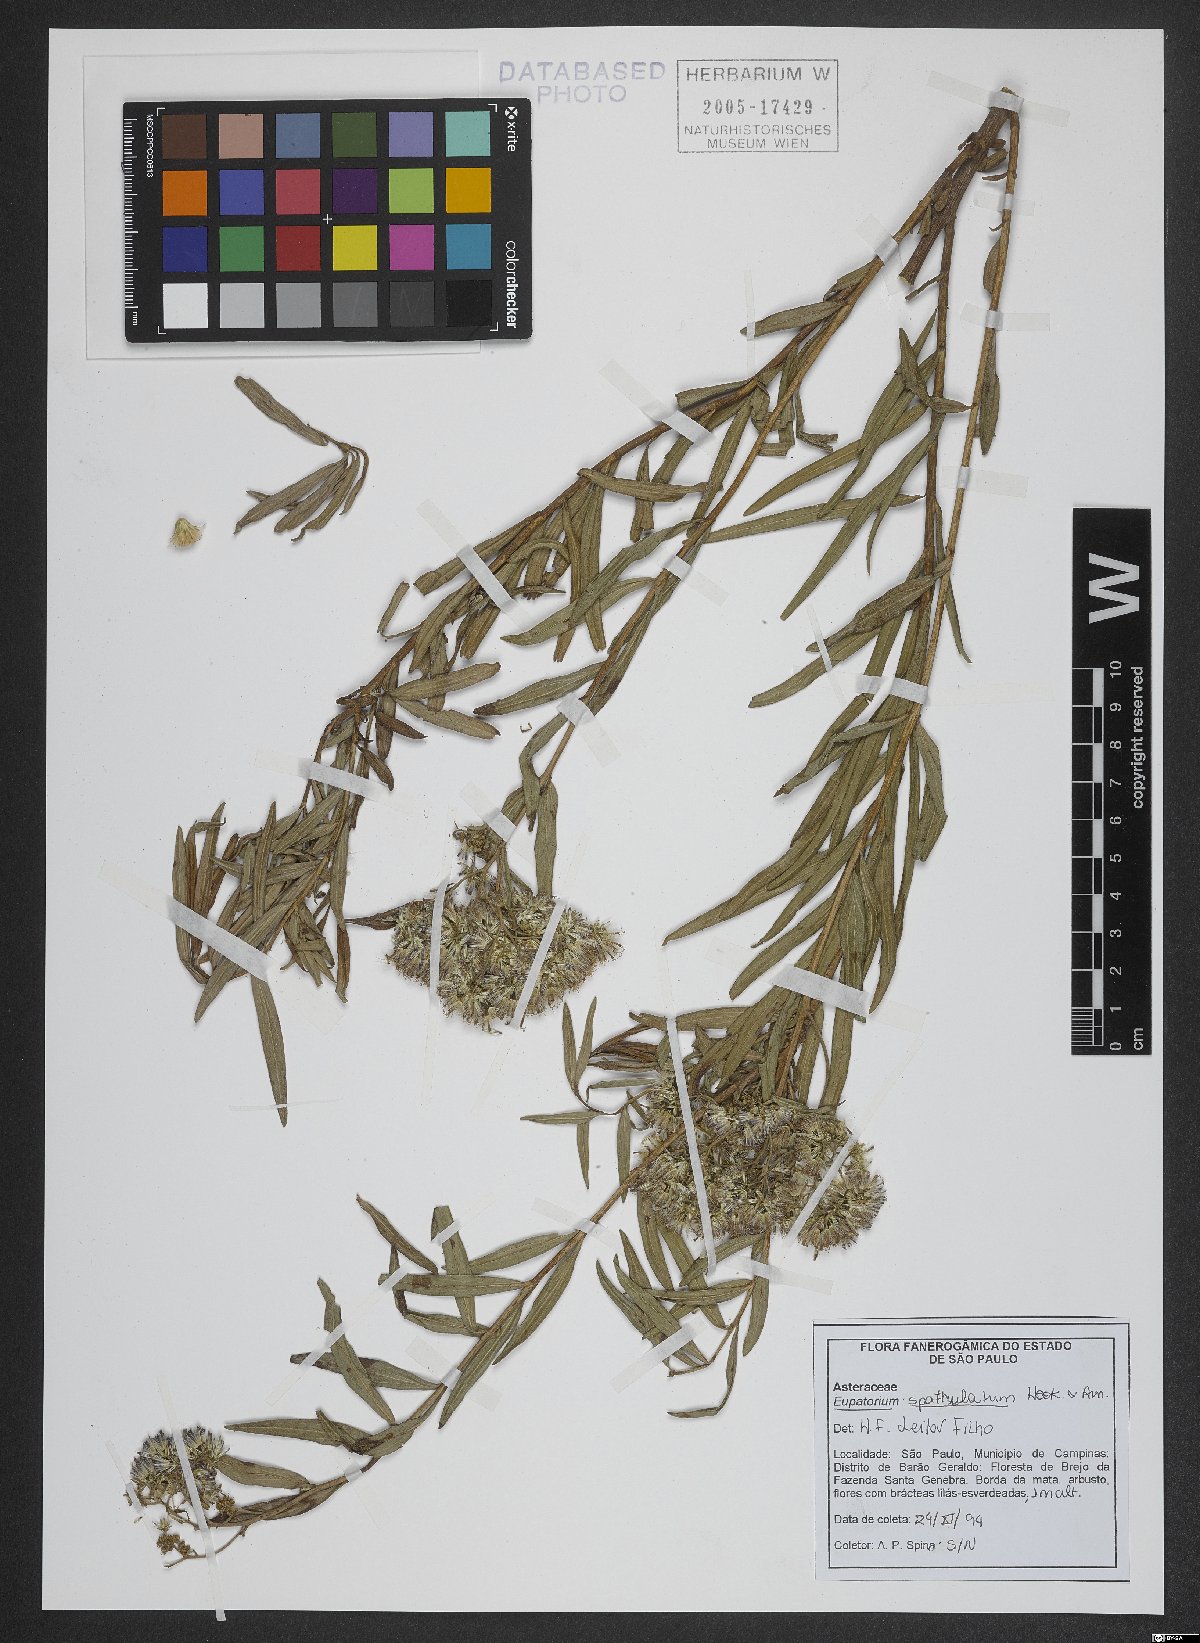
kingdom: Plantae
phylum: Tracheophyta
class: Magnoliopsida
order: Asterales
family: Asteraceae
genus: Disynaphia
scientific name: Disynaphia spathulata
